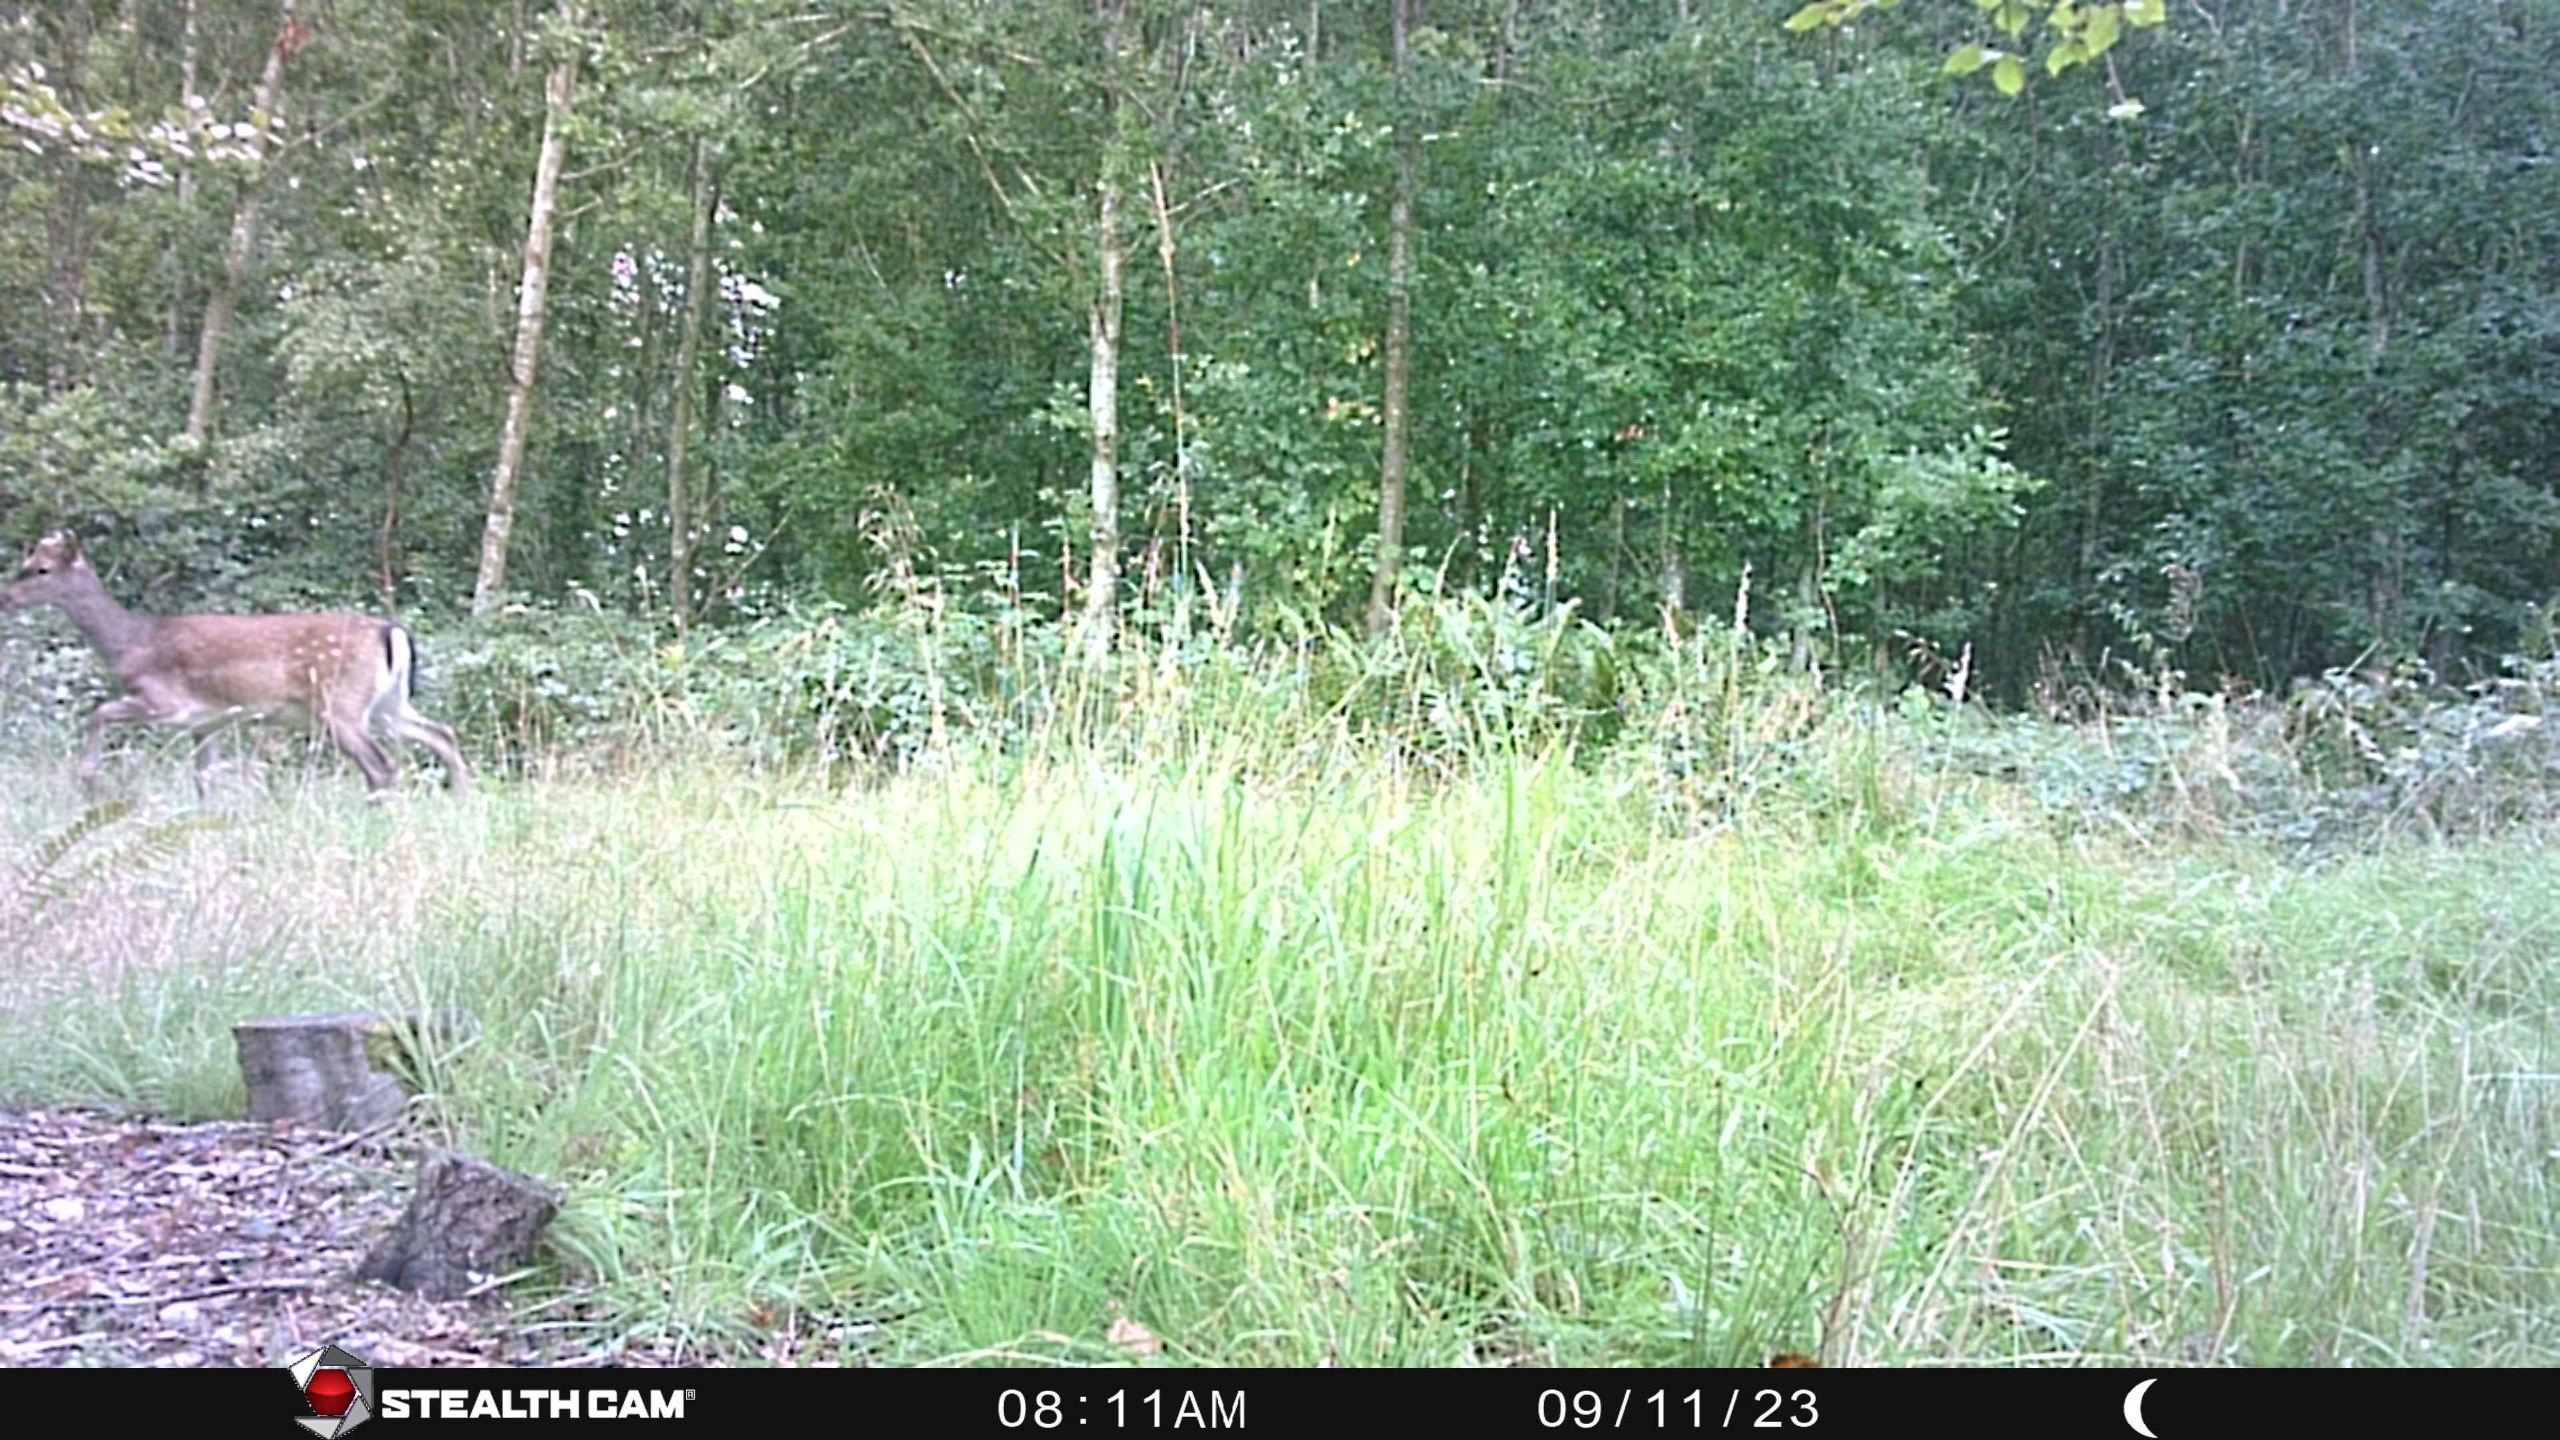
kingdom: Animalia
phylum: Chordata
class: Mammalia
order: Artiodactyla
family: Cervidae
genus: Dama
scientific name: Dama dama
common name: Dådyr
